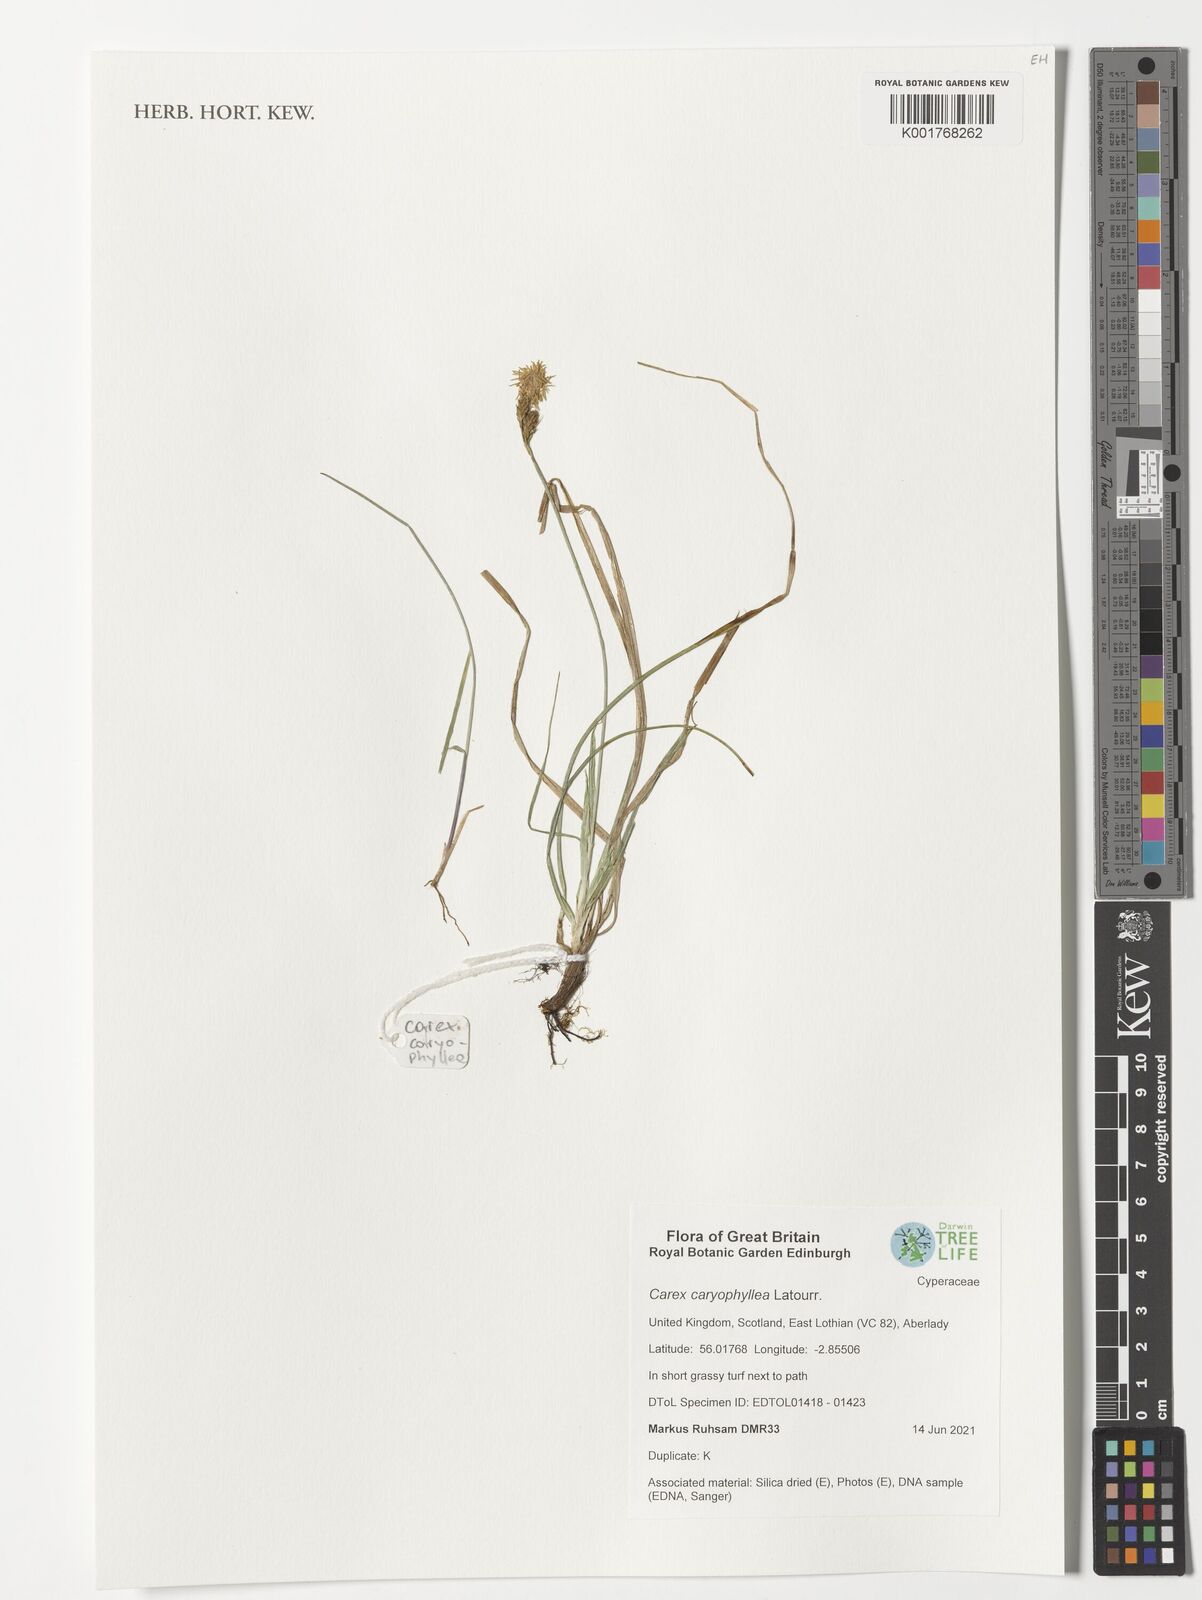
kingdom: Plantae
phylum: Tracheophyta
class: Liliopsida
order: Poales
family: Cyperaceae
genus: Carex
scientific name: Carex caryophyllea
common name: Spring sedge
